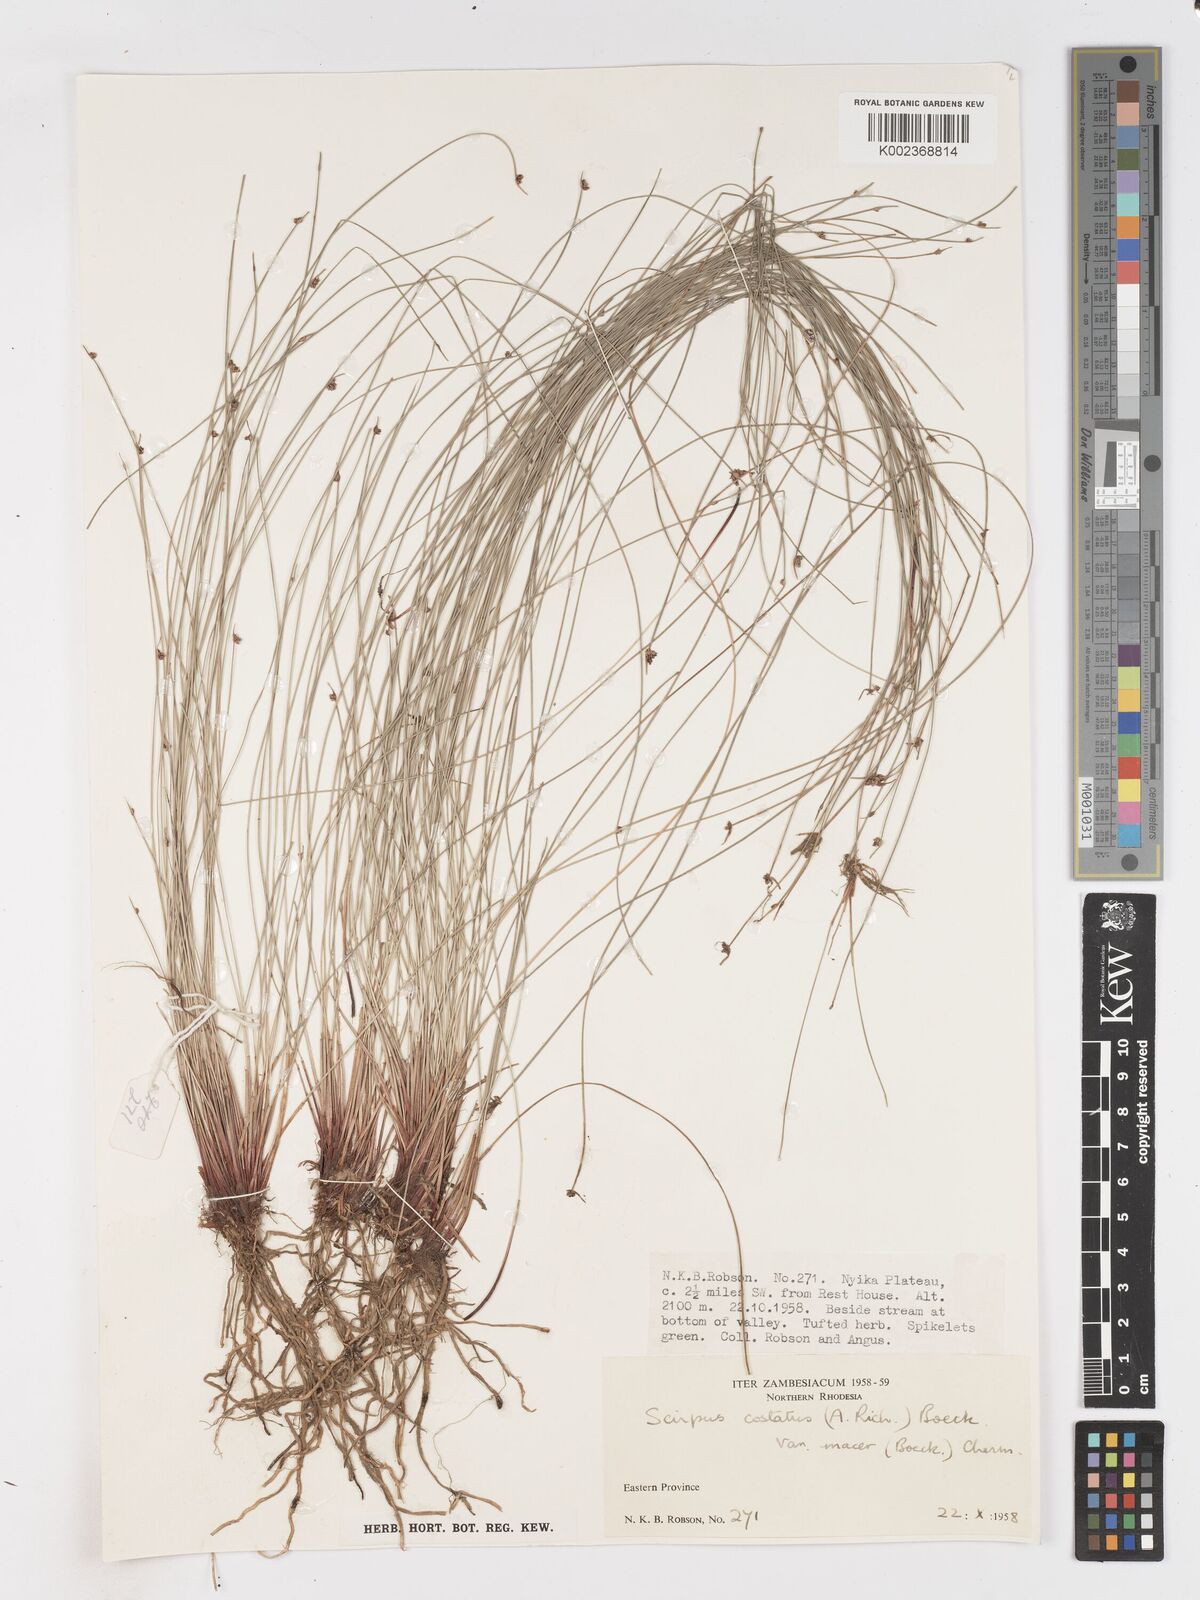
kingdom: Plantae
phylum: Tracheophyta
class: Liliopsida
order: Poales
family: Cyperaceae
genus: Isolepis
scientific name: Isolepis costata
